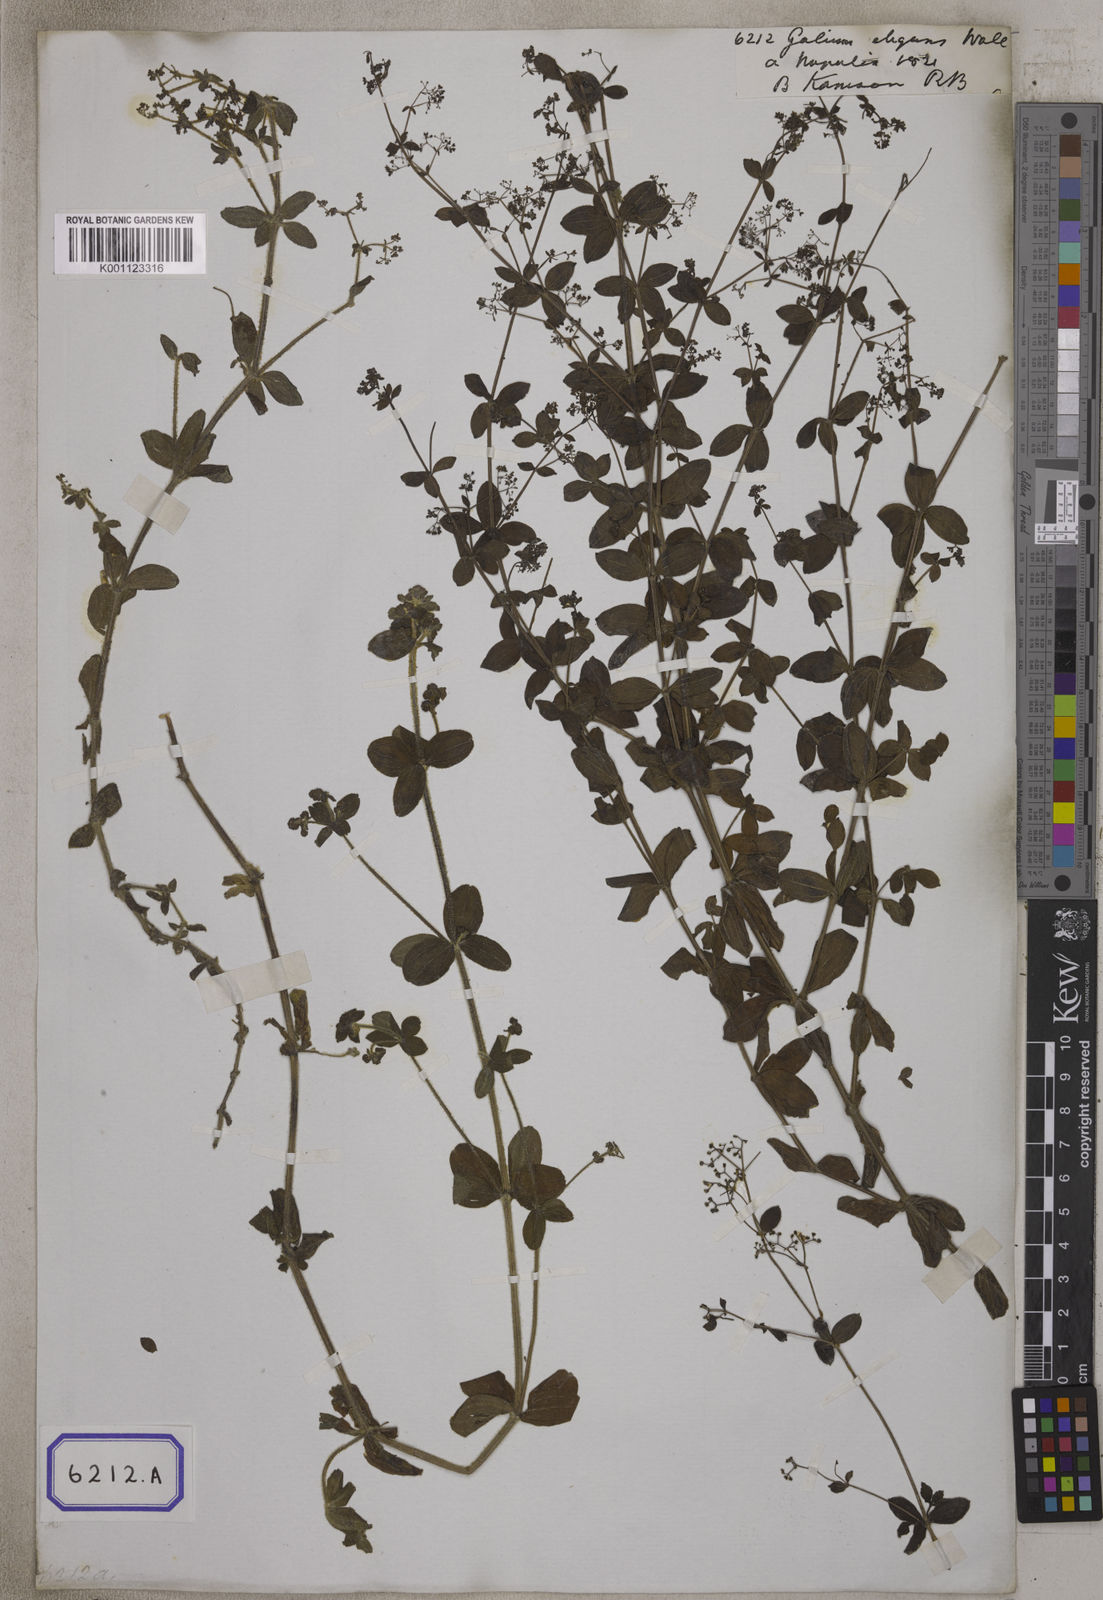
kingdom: Plantae
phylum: Tracheophyta
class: Magnoliopsida
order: Gentianales
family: Rubiaceae
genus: Galium
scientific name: Galium elegans
